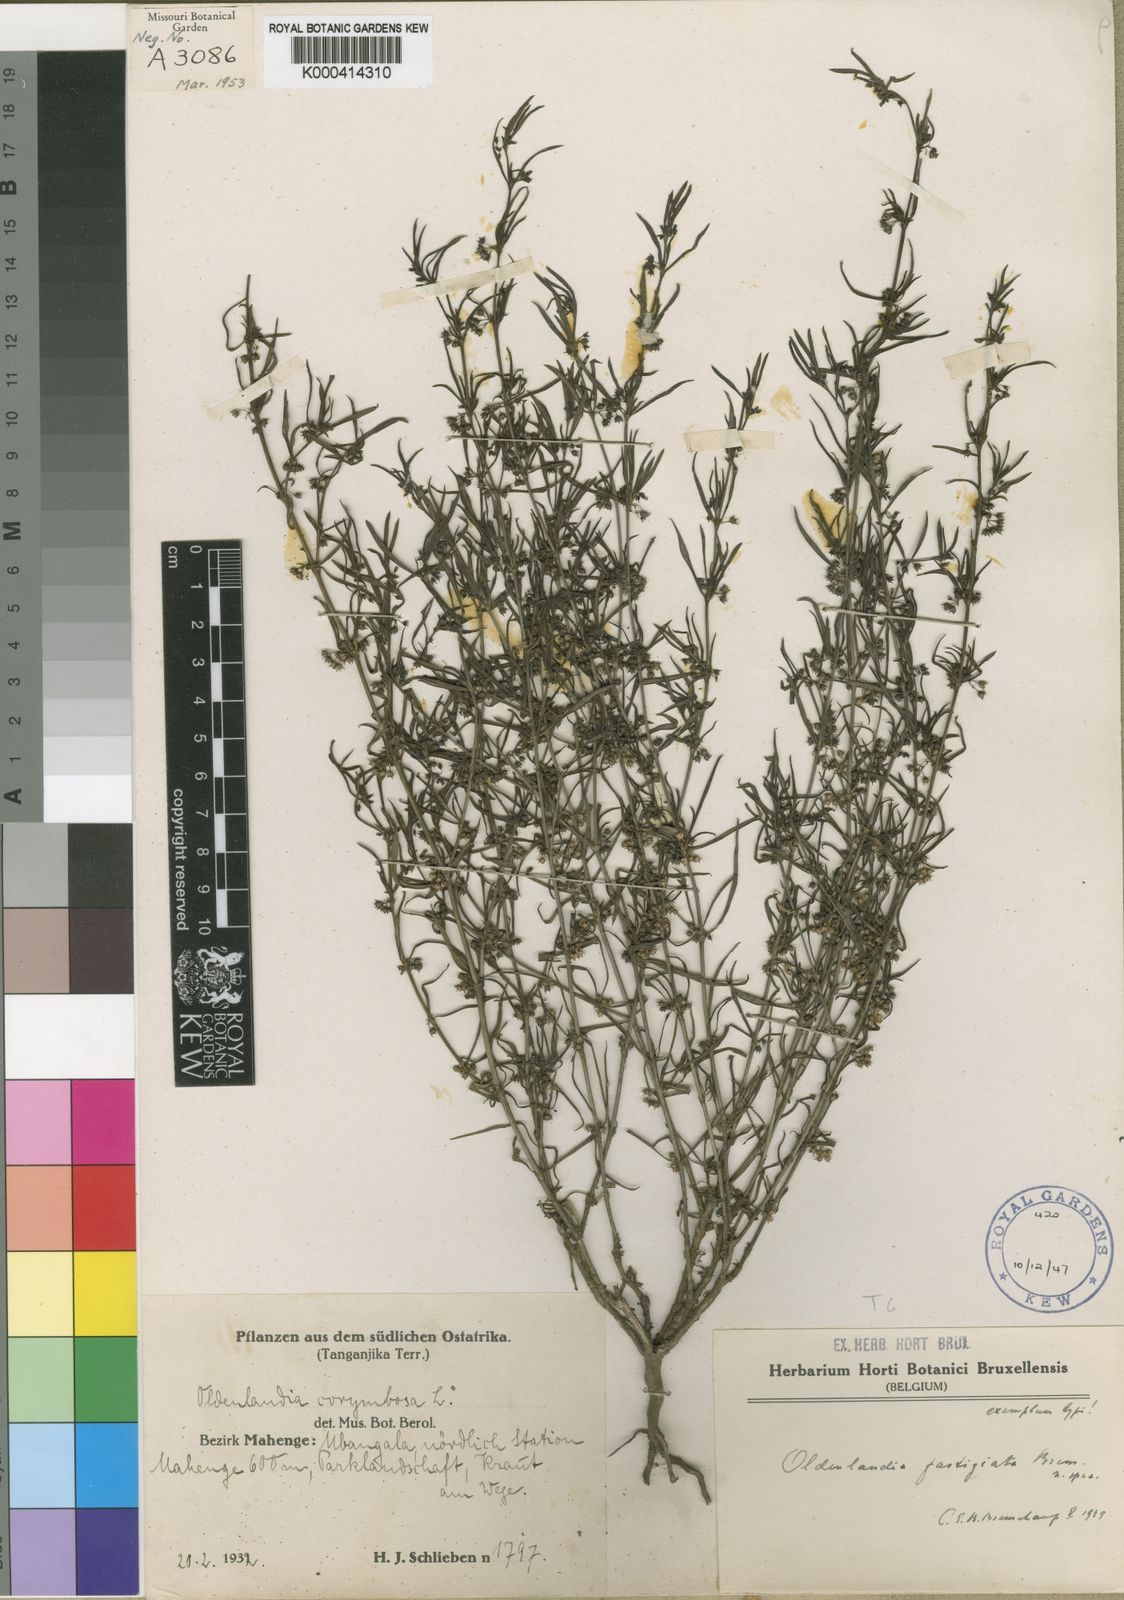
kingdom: Plantae
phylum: Tracheophyta
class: Magnoliopsida
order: Gentianales
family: Rubiaceae
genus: Oldenlandia
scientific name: Oldenlandia fastigiata
